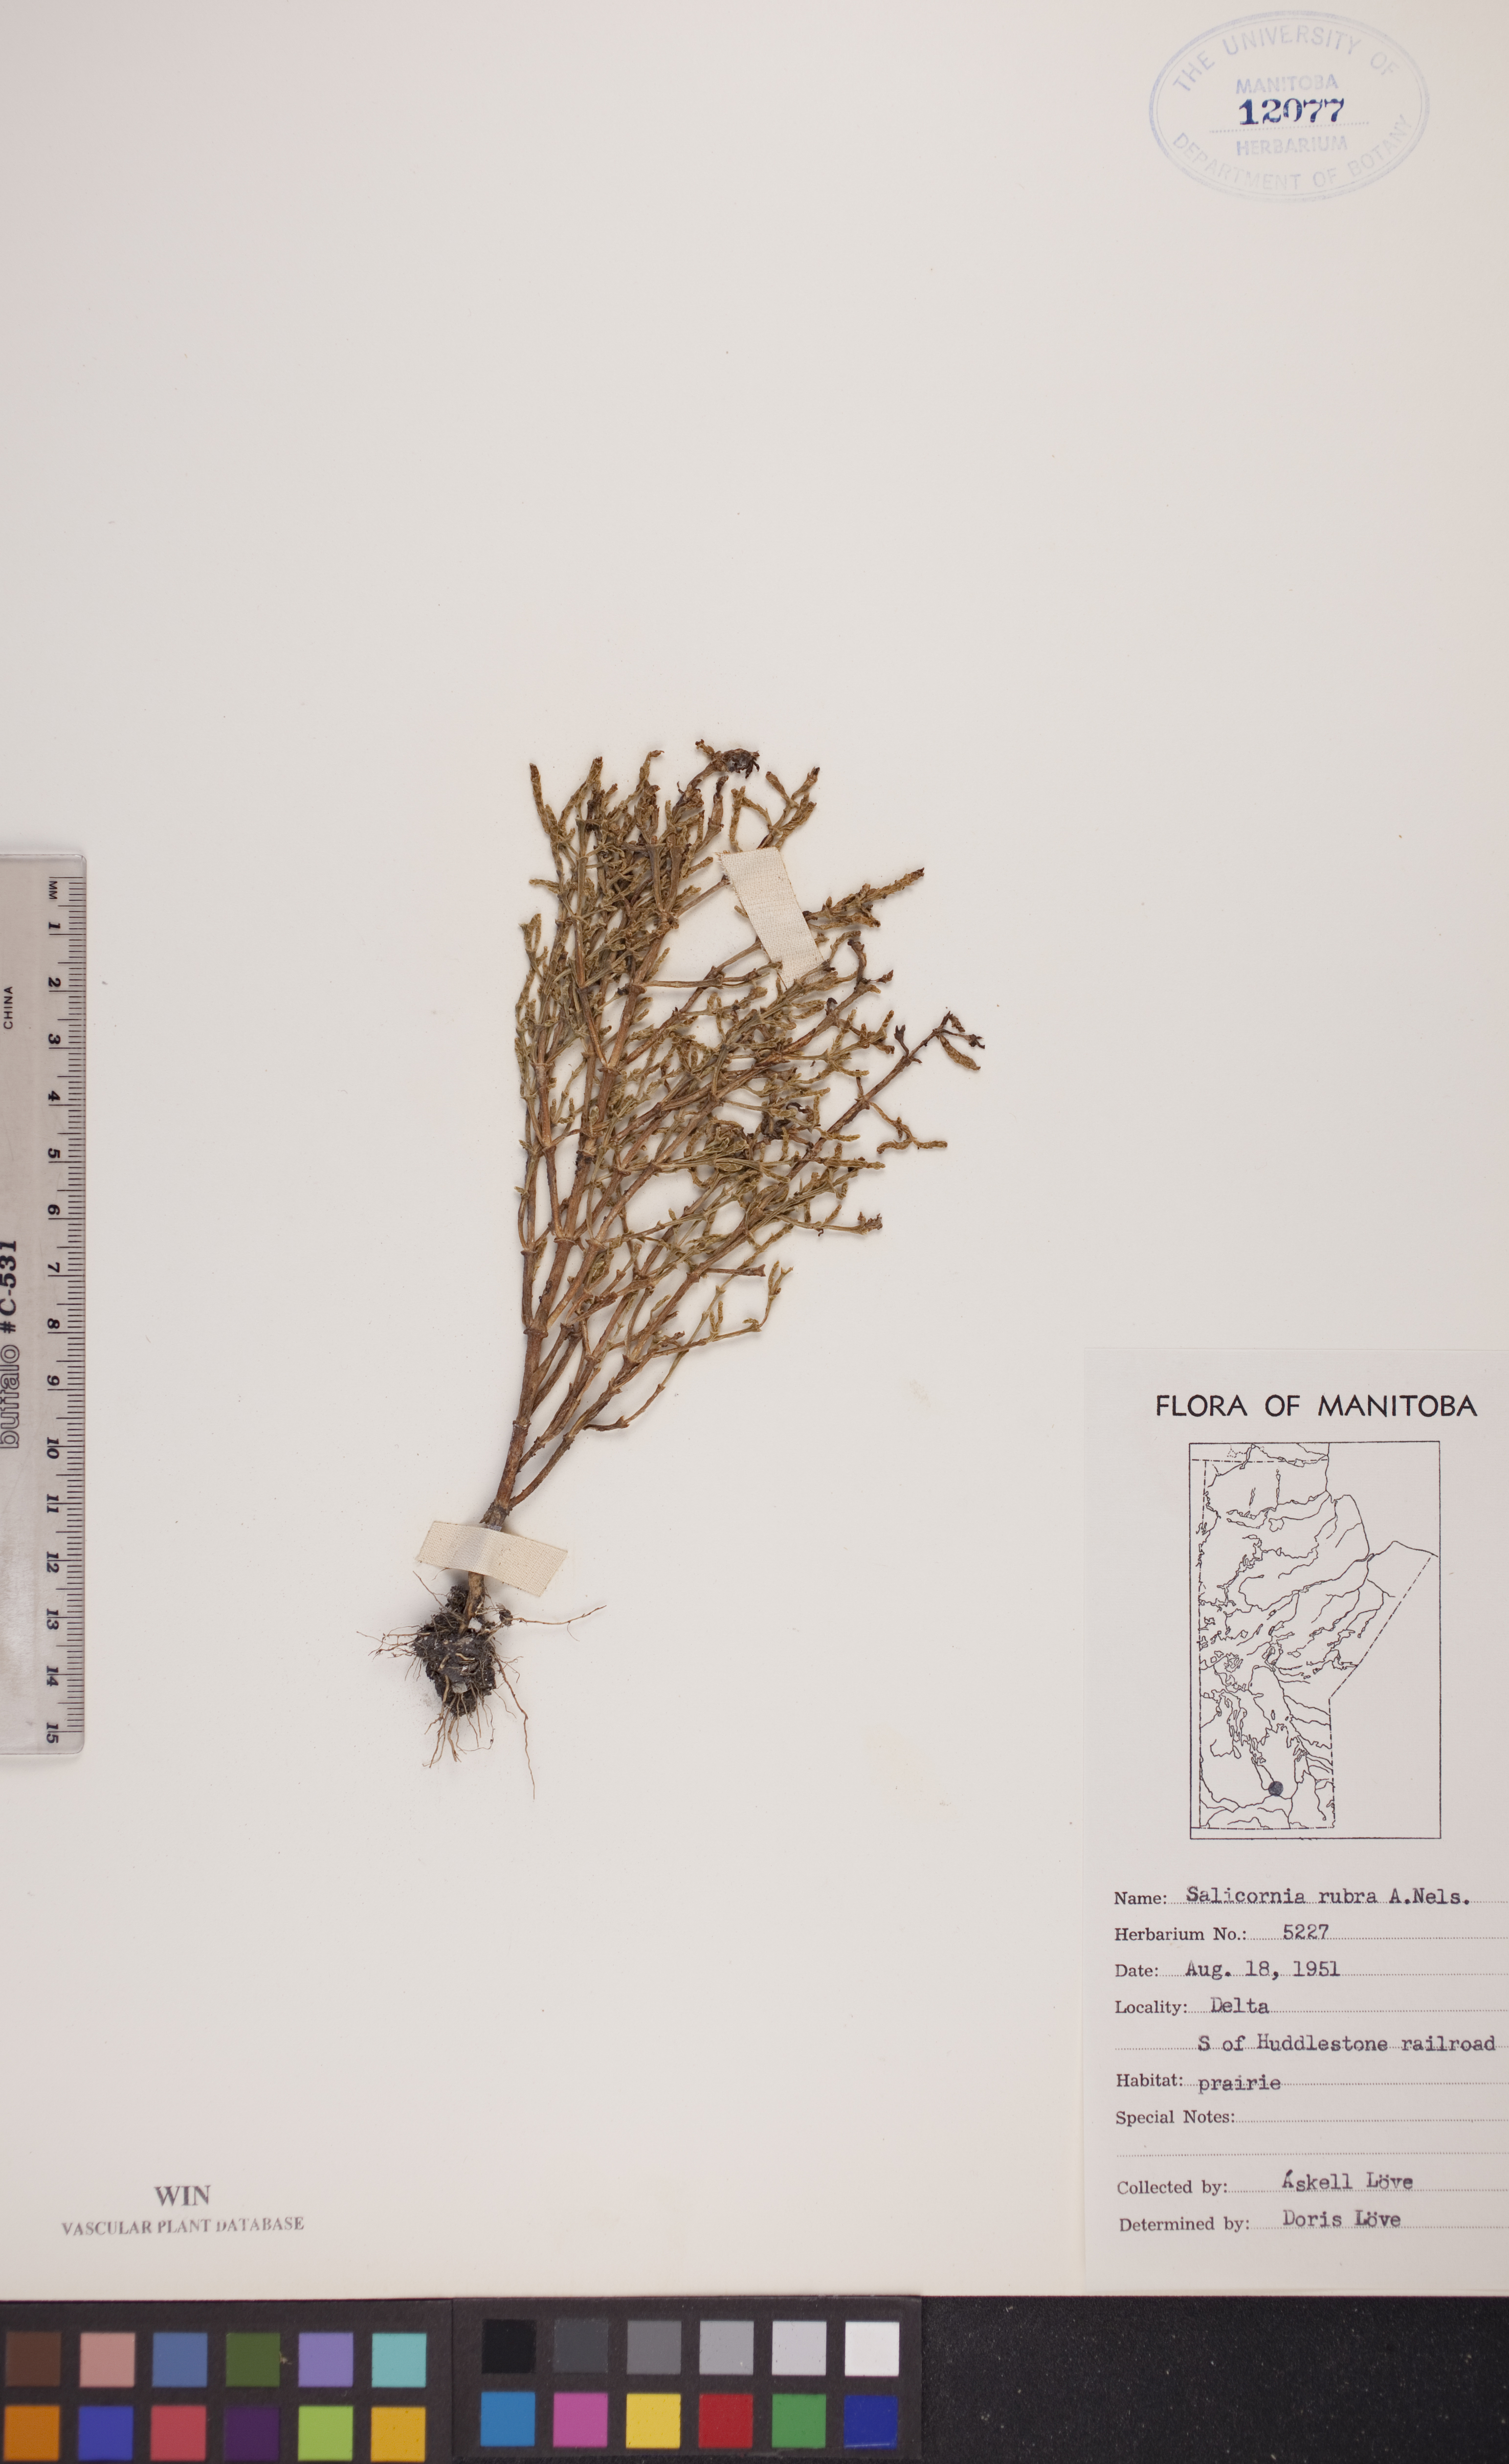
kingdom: Plantae
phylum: Tracheophyta
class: Magnoliopsida
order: Caryophyllales
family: Amaranthaceae
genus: Salicornia
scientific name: Salicornia rubra
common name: Red glasswort
